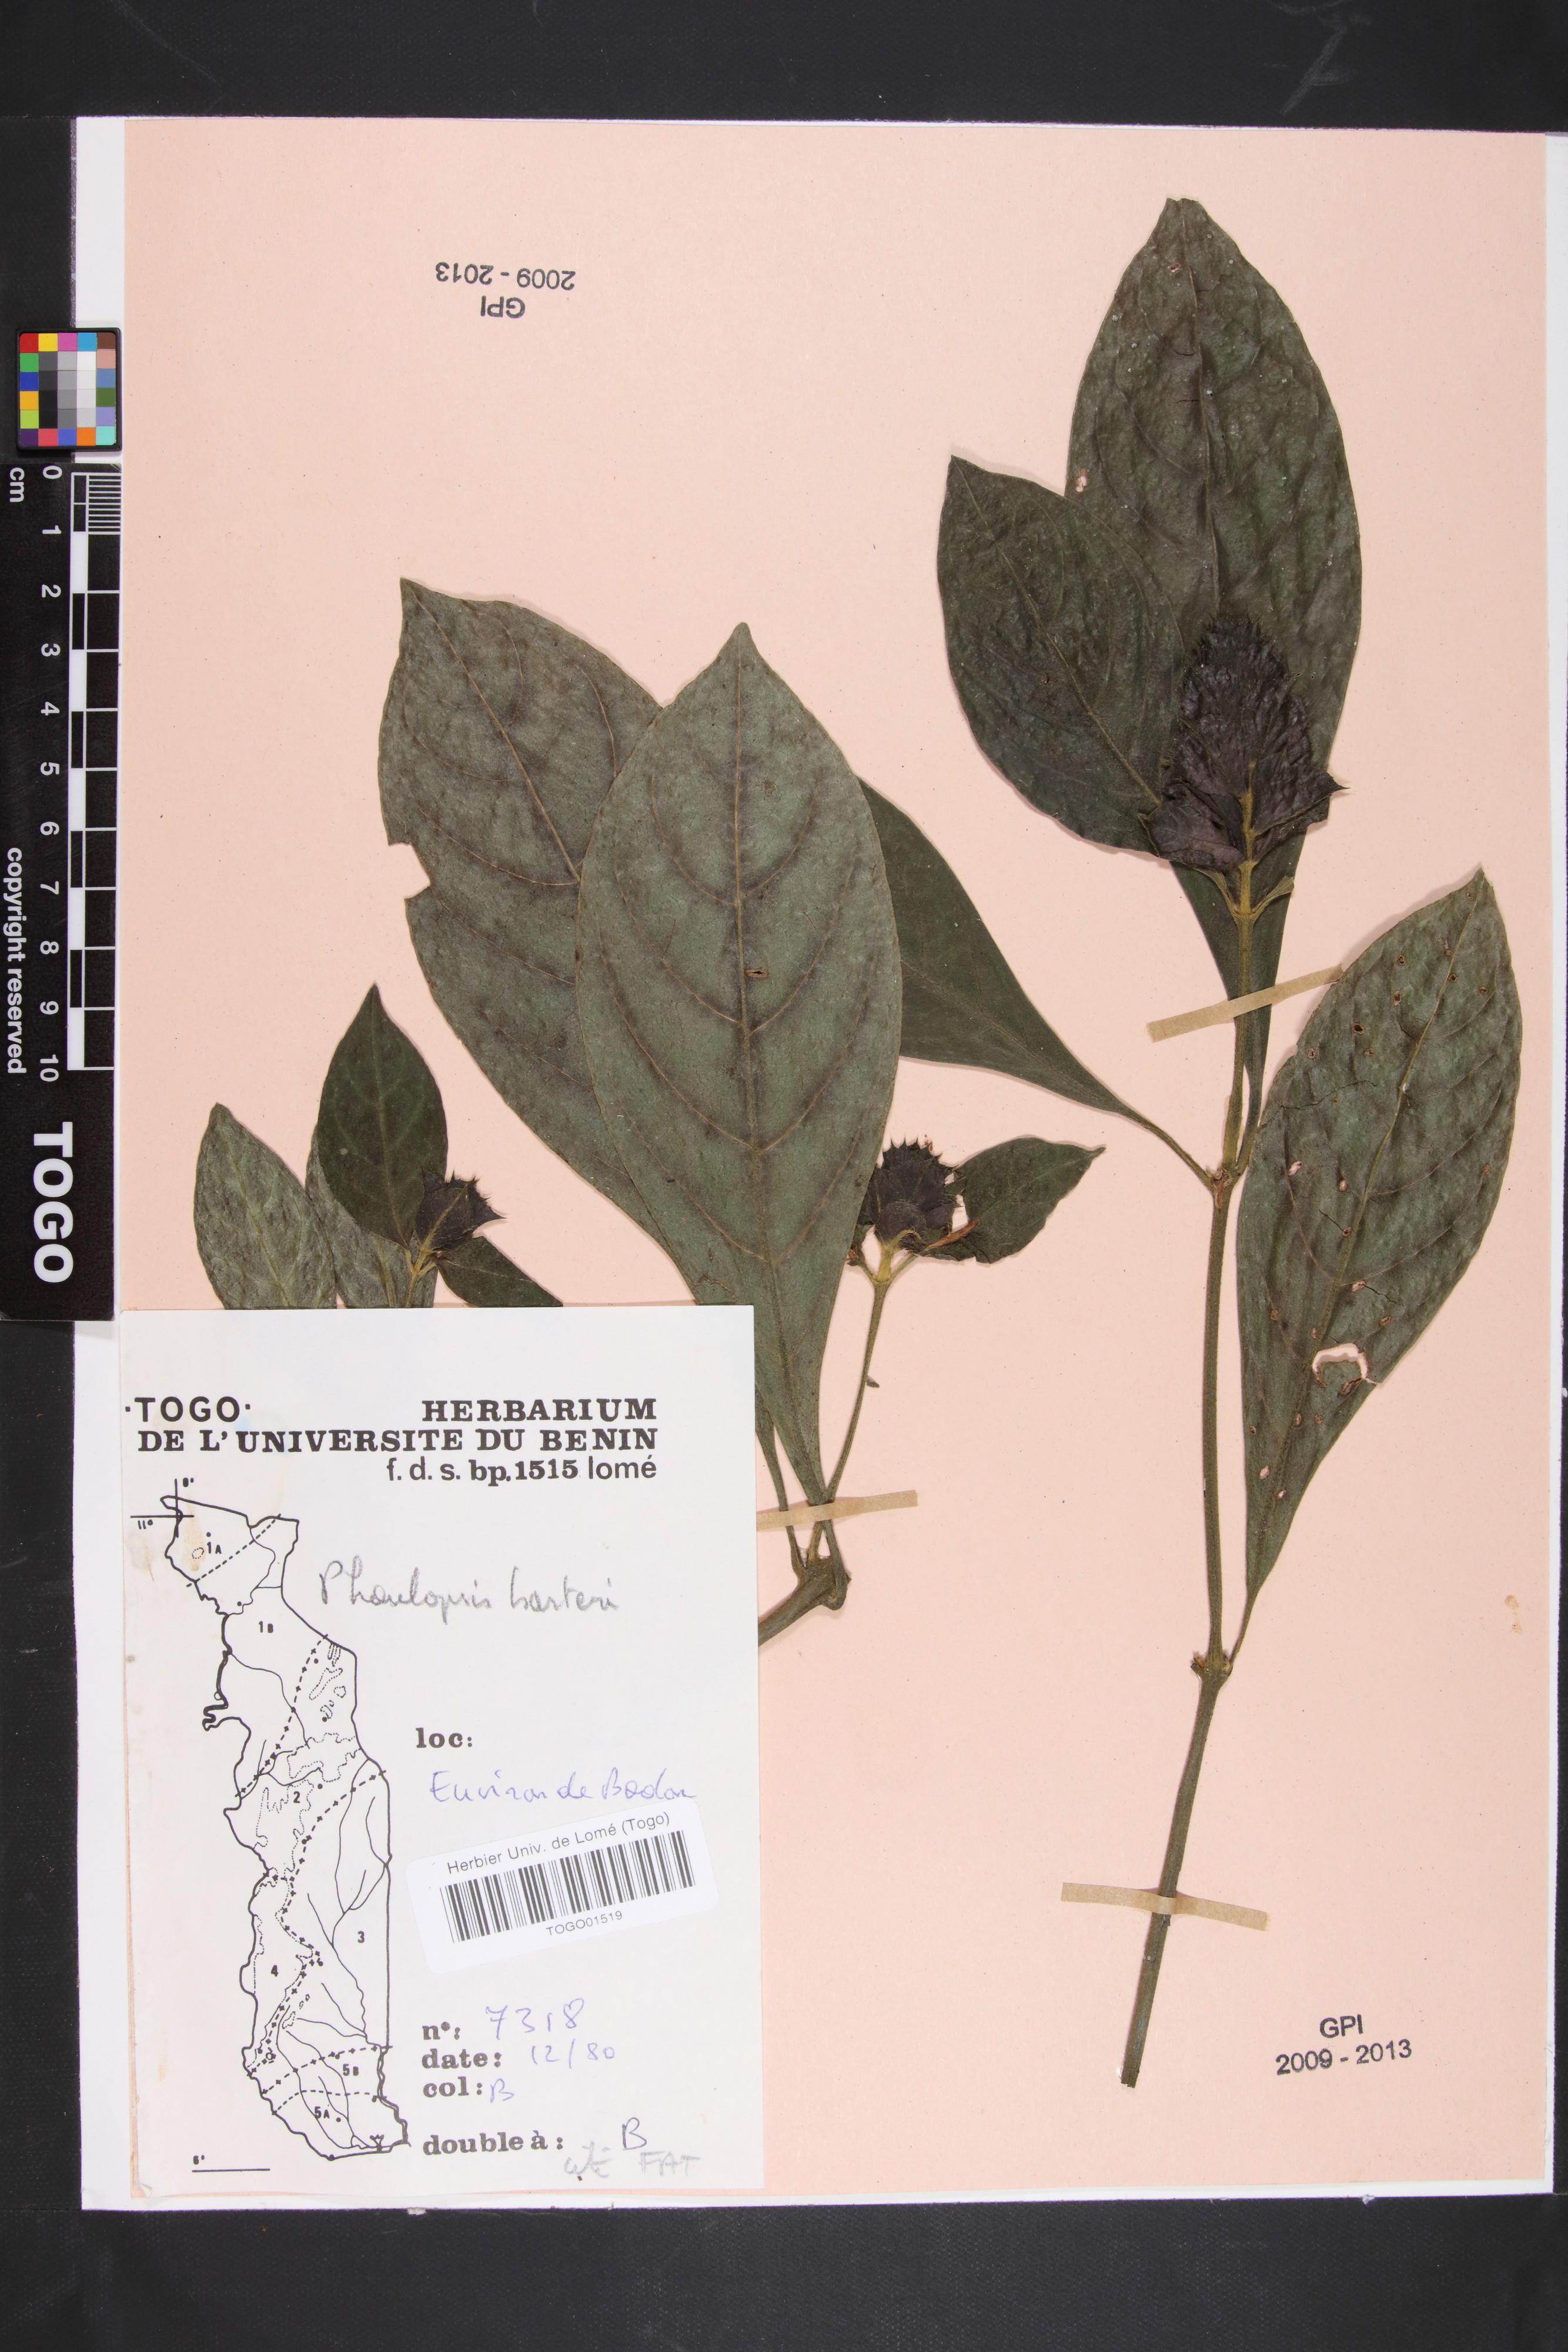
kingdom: Plantae
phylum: Tracheophyta
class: Magnoliopsida
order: Lamiales
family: Acanthaceae
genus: Phaulopsis
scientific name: Phaulopsis barteri
